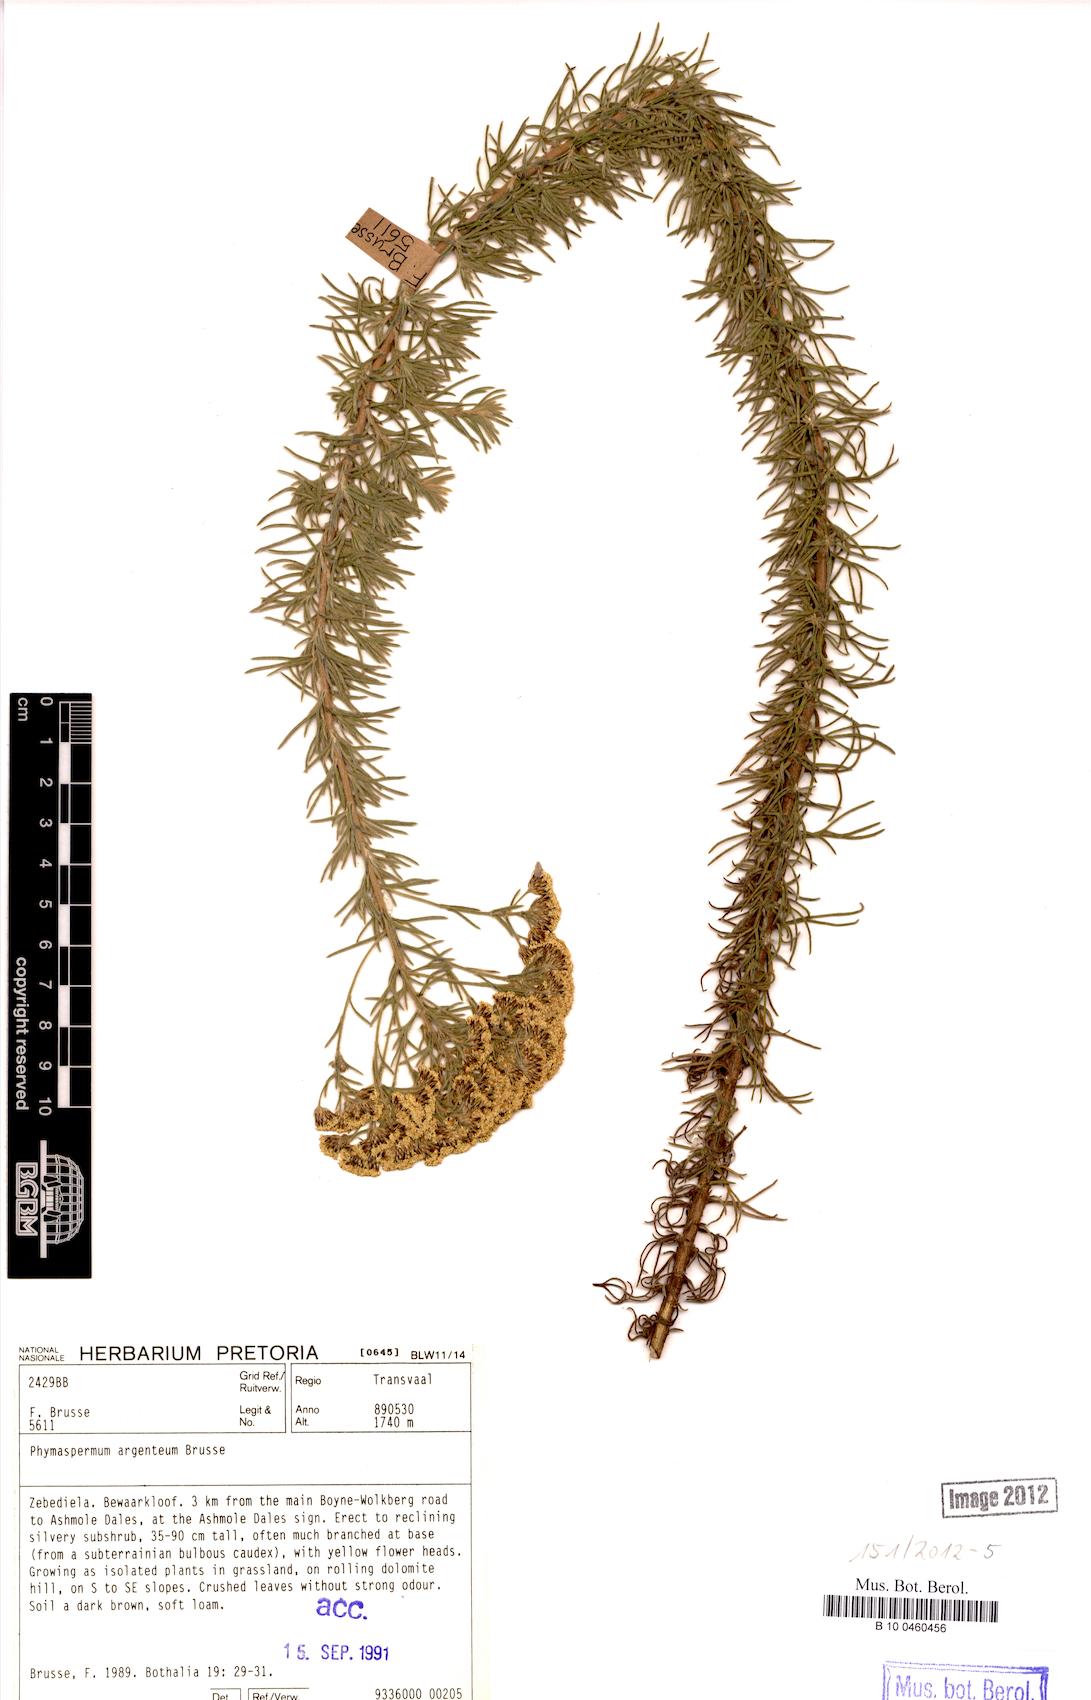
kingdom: Plantae
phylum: Tracheophyta
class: Magnoliopsida
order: Asterales
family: Asteraceae
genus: Phymaspermum
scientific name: Phymaspermum argenteum
